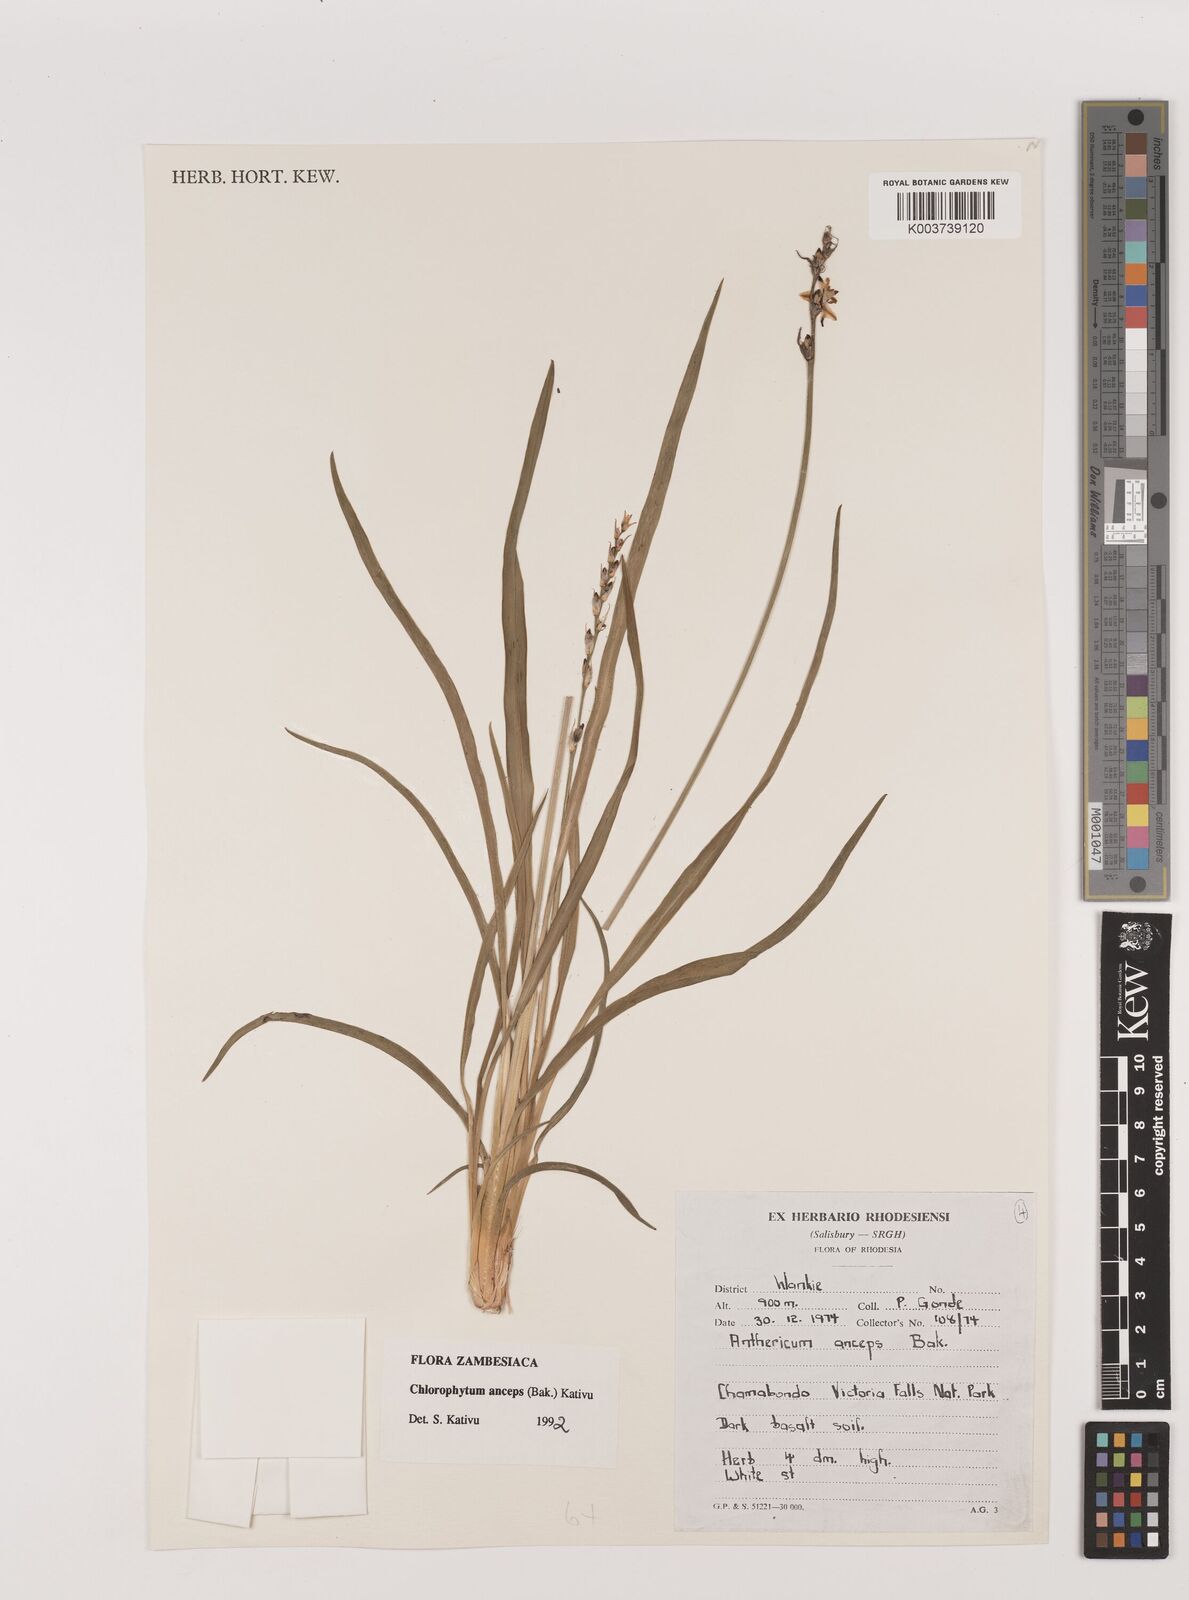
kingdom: Plantae
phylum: Tracheophyta
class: Liliopsida
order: Asparagales
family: Asparagaceae
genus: Chlorophytum
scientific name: Chlorophytum anceps
